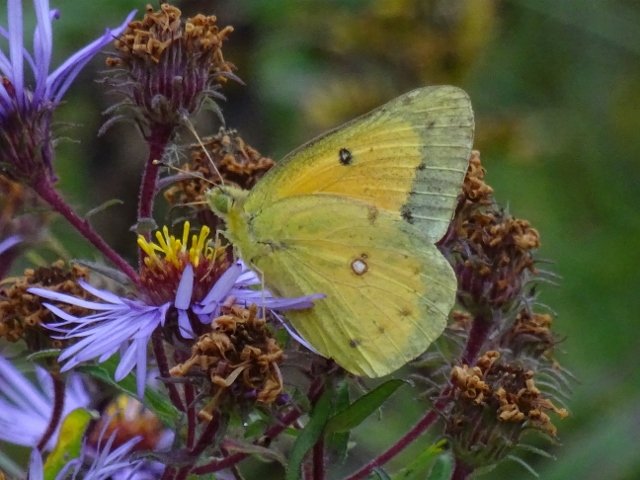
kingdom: Animalia
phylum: Arthropoda
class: Insecta
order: Lepidoptera
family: Pieridae
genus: Colias
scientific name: Colias eurytheme
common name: Orange Sulphur
